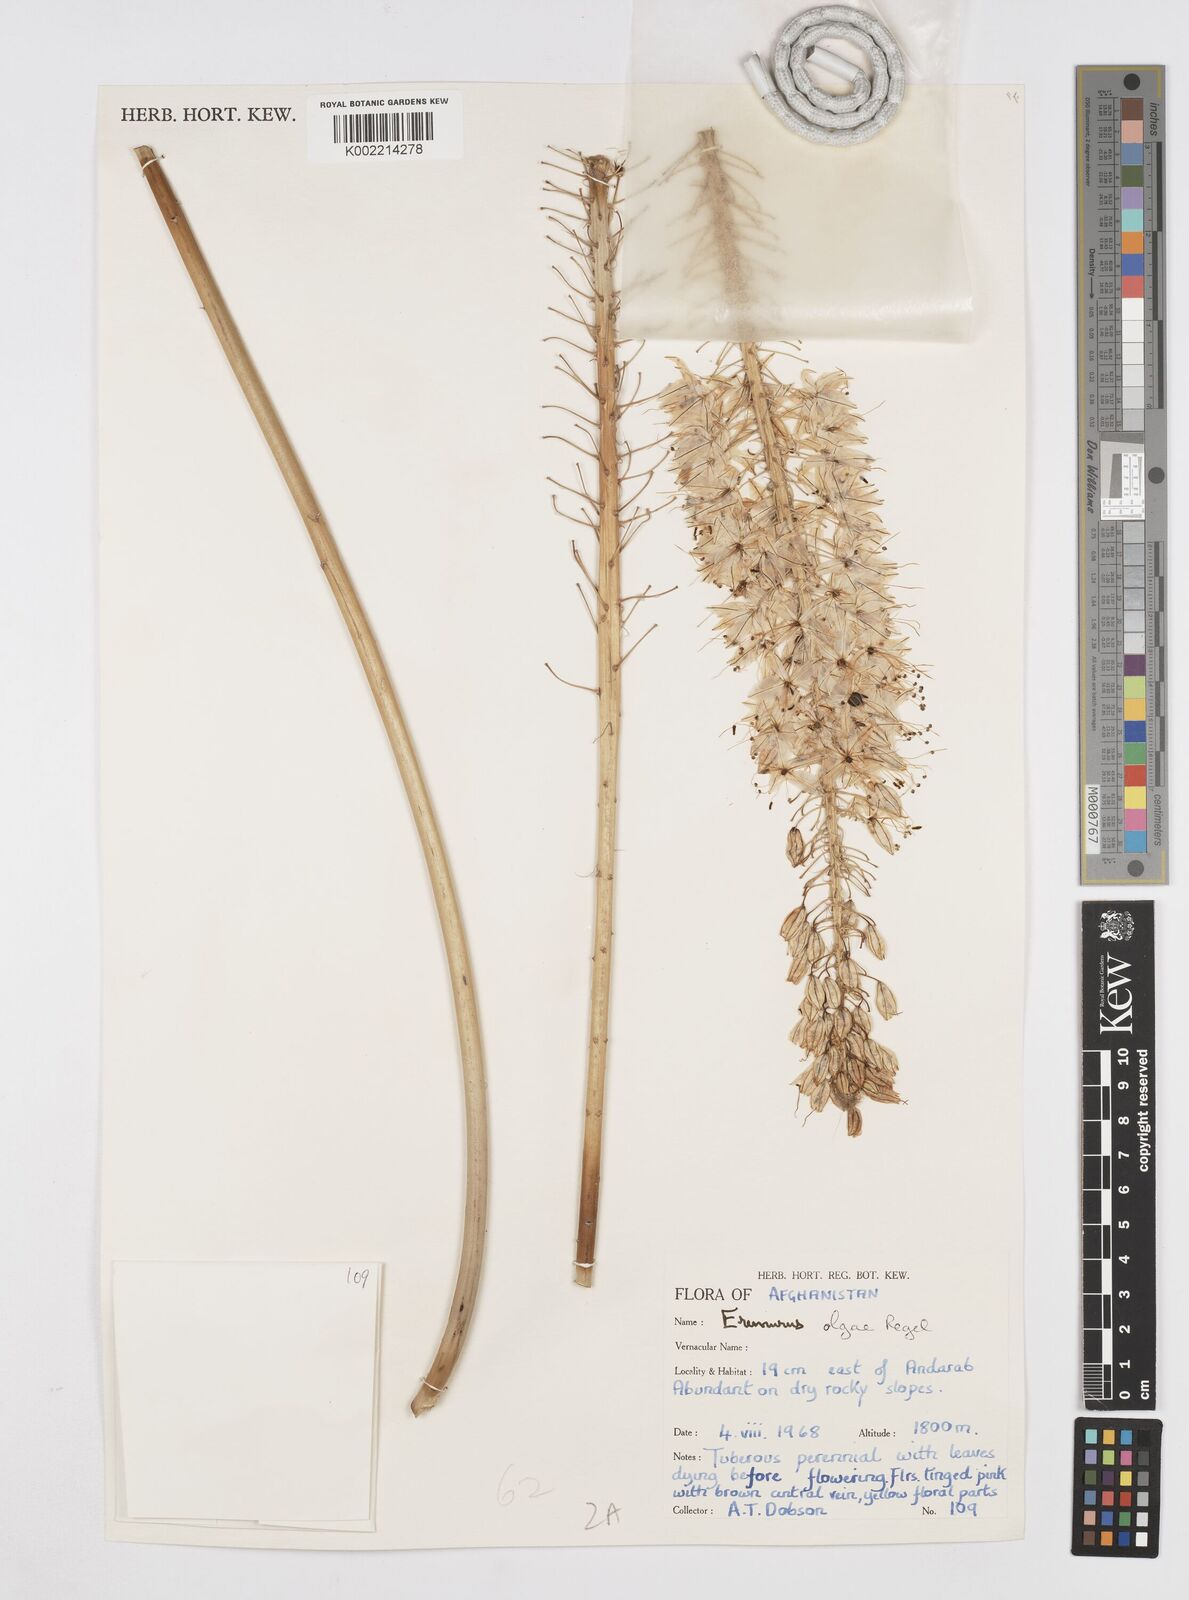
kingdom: Plantae
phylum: Tracheophyta
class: Liliopsida
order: Asparagales
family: Asphodelaceae
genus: Eremurus
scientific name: Eremurus olgae
